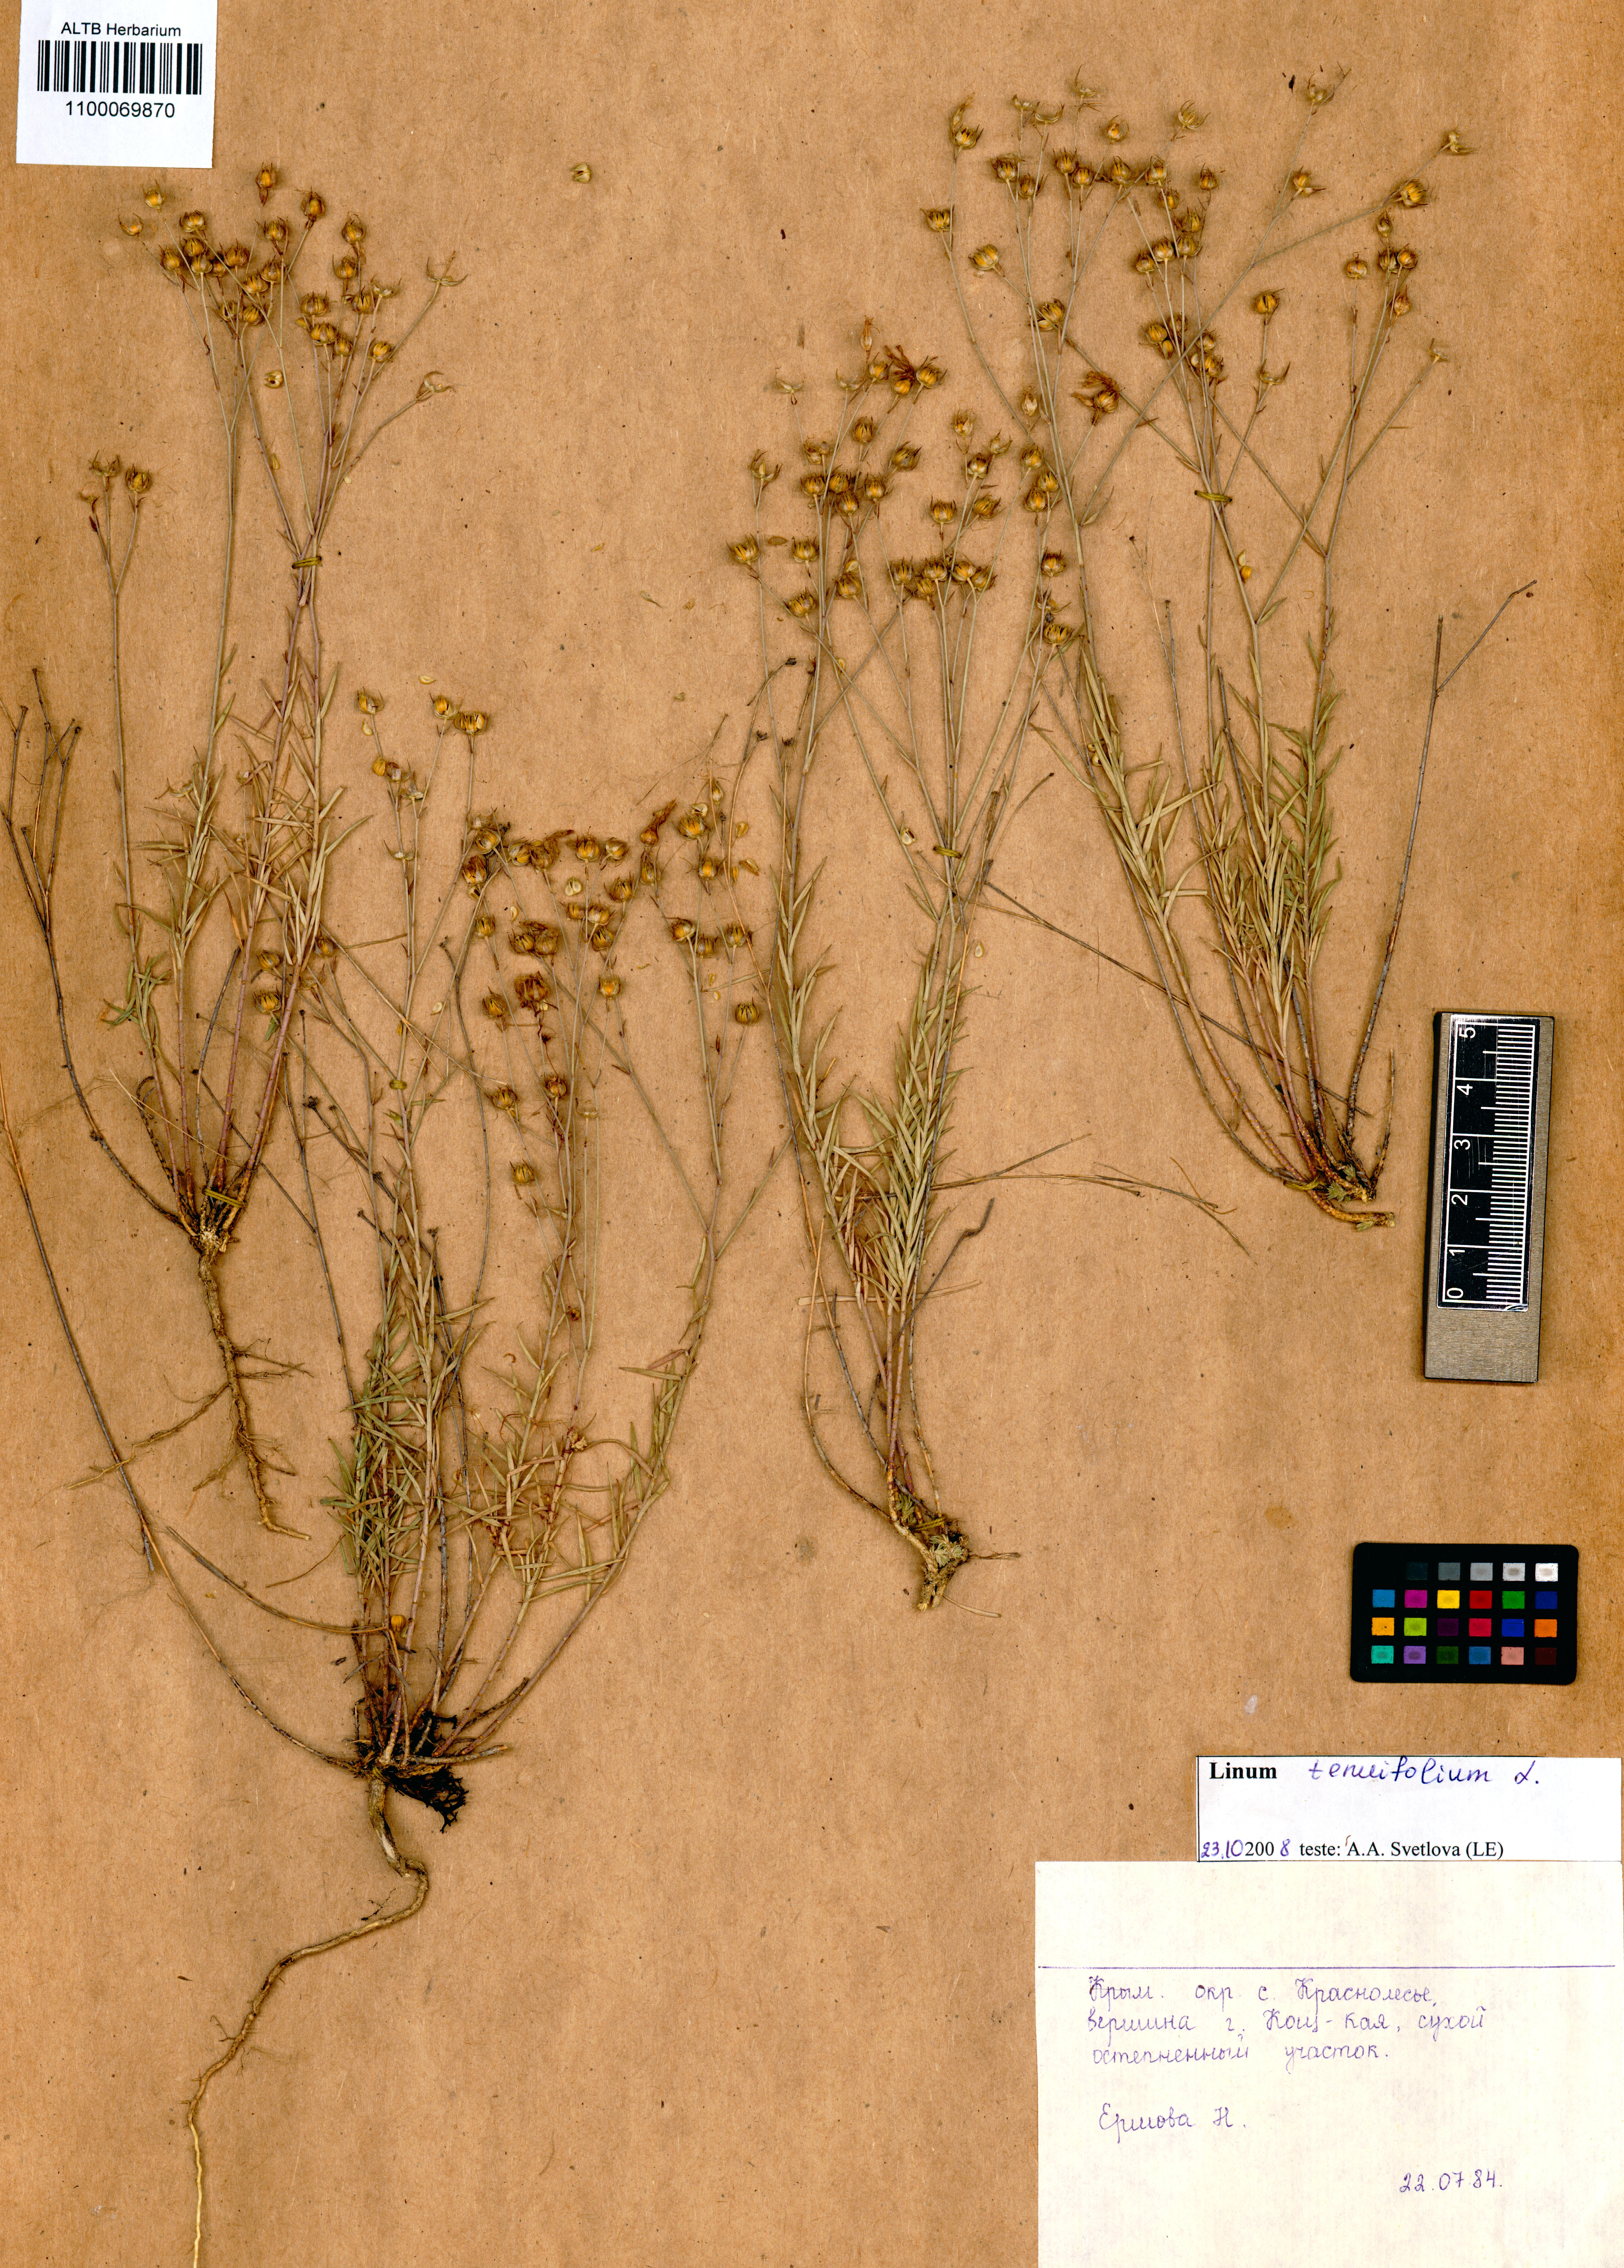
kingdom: Plantae
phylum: Tracheophyta
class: Magnoliopsida
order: Malpighiales
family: Linaceae
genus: Linum
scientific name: Linum tenuifolium
